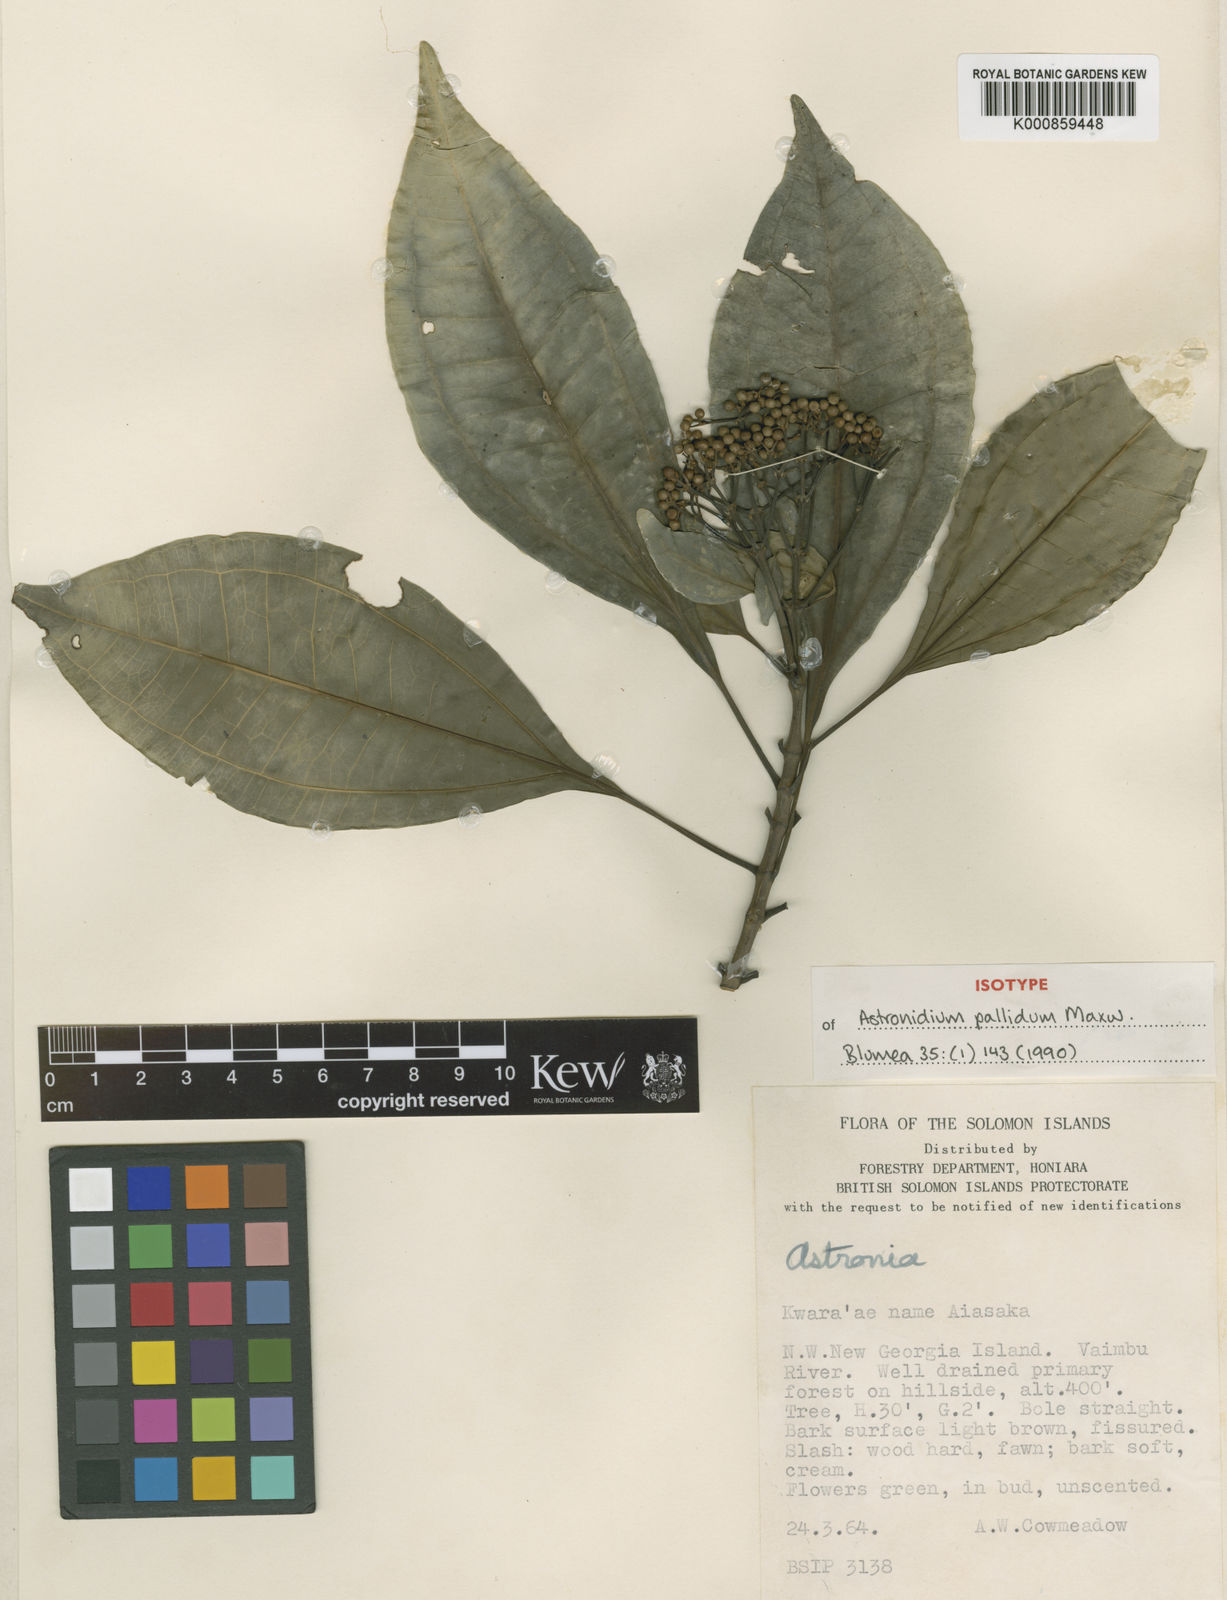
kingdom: Plantae
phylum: Tracheophyta
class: Magnoliopsida
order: Myrtales
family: Melastomataceae
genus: Astronidium
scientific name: Astronidium pallidum
